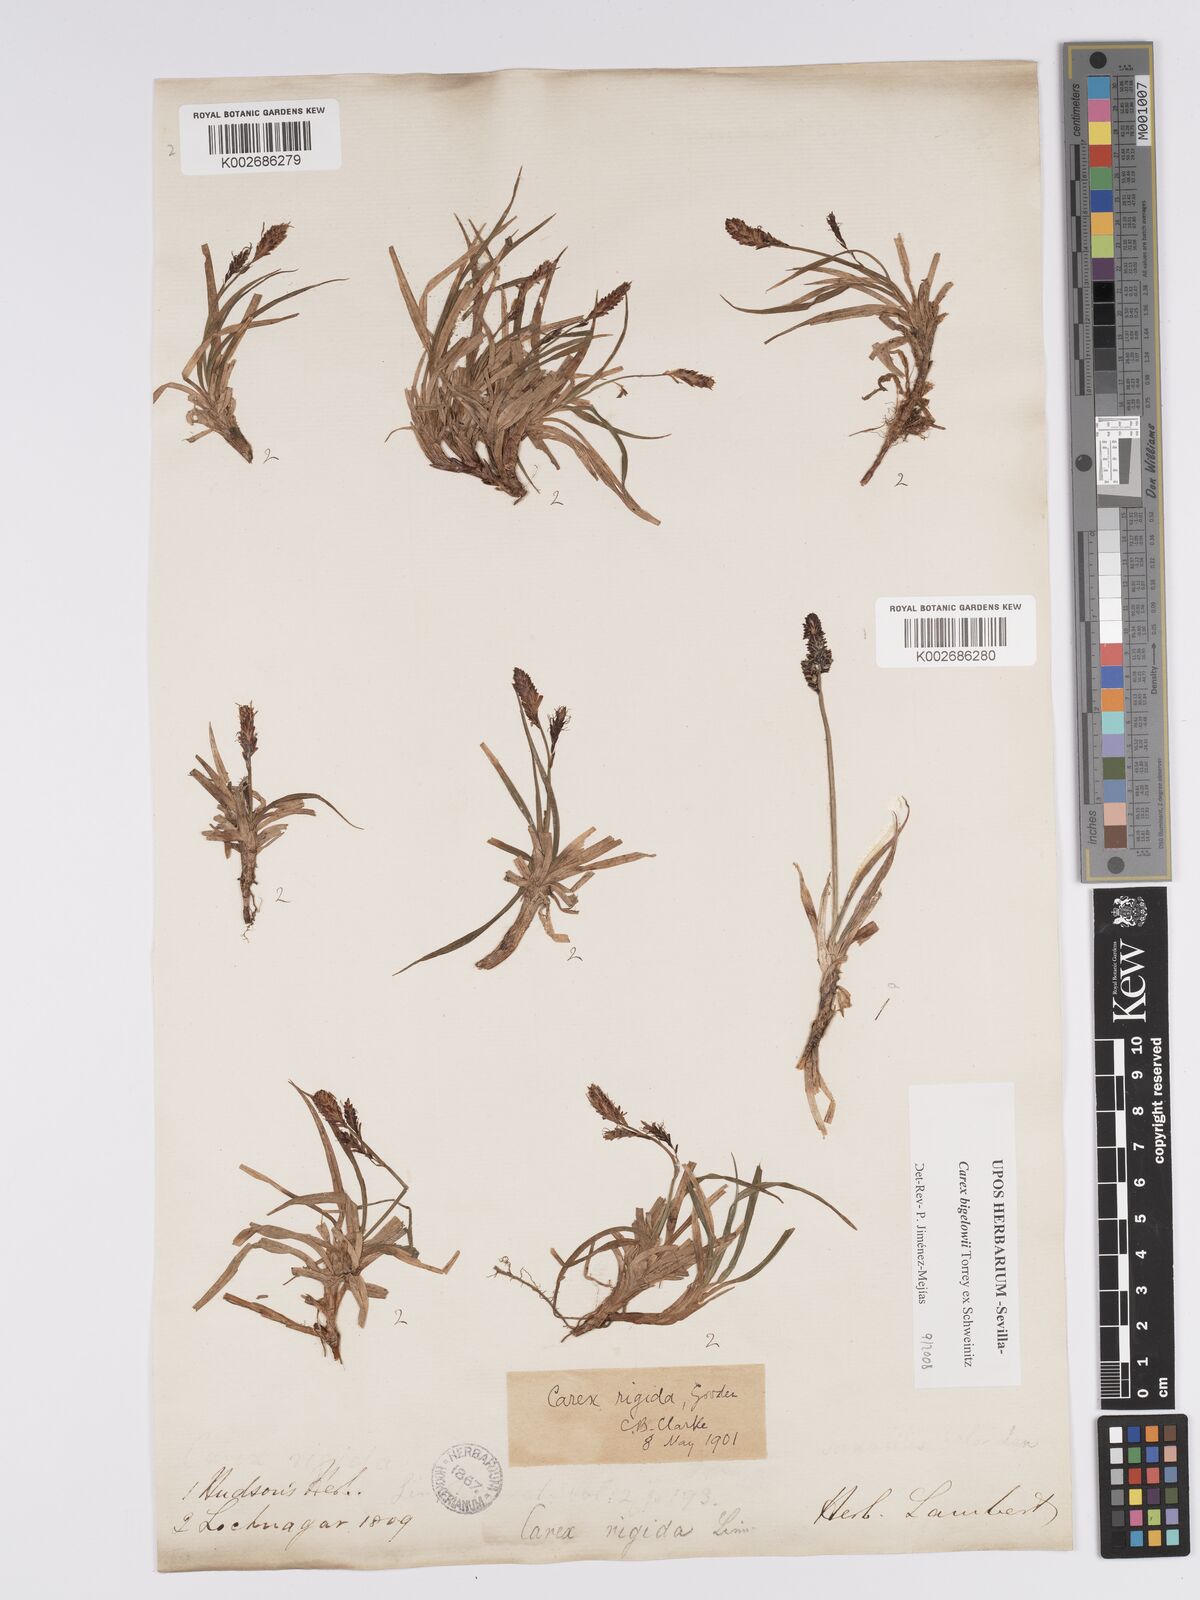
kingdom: Plantae
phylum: Tracheophyta
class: Liliopsida
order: Poales
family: Cyperaceae
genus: Carex
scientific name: Carex bigelowii
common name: Stiff sedge
